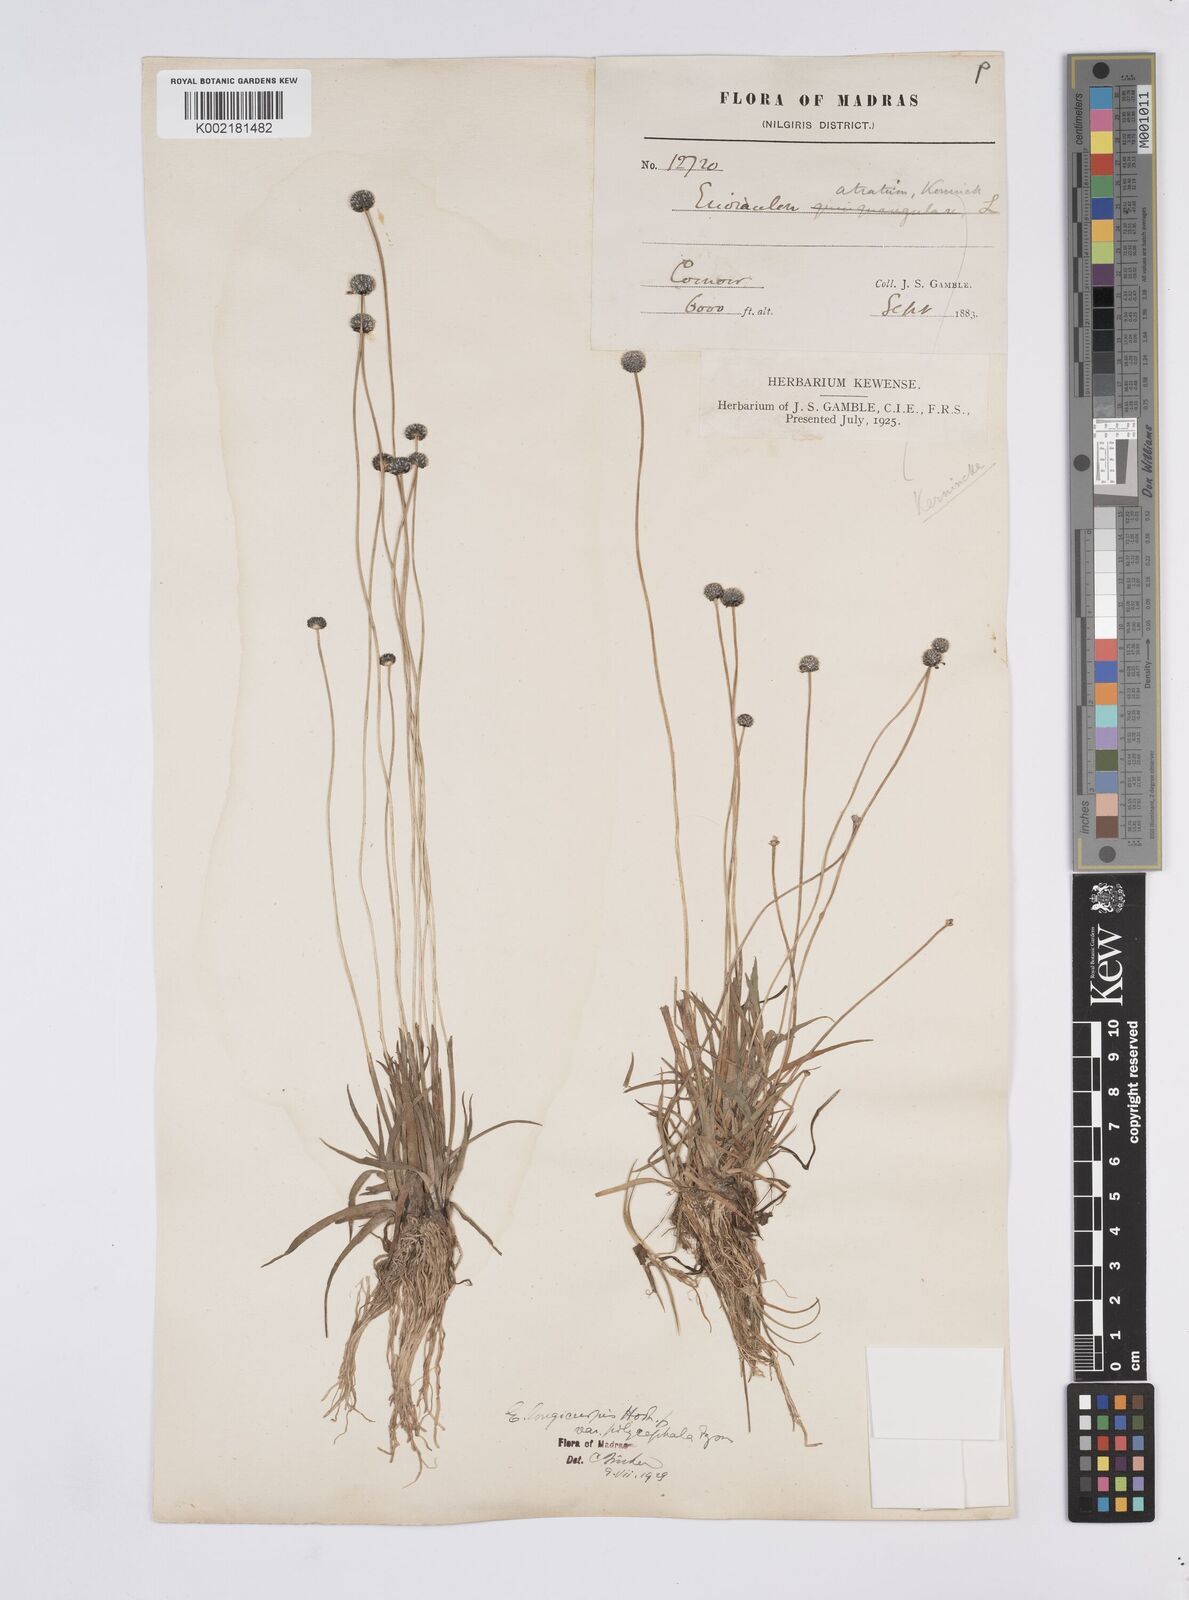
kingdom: Plantae
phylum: Tracheophyta
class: Liliopsida
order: Poales
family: Eriocaulaceae
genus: Eriocaulon
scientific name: Eriocaulon longicuspe
